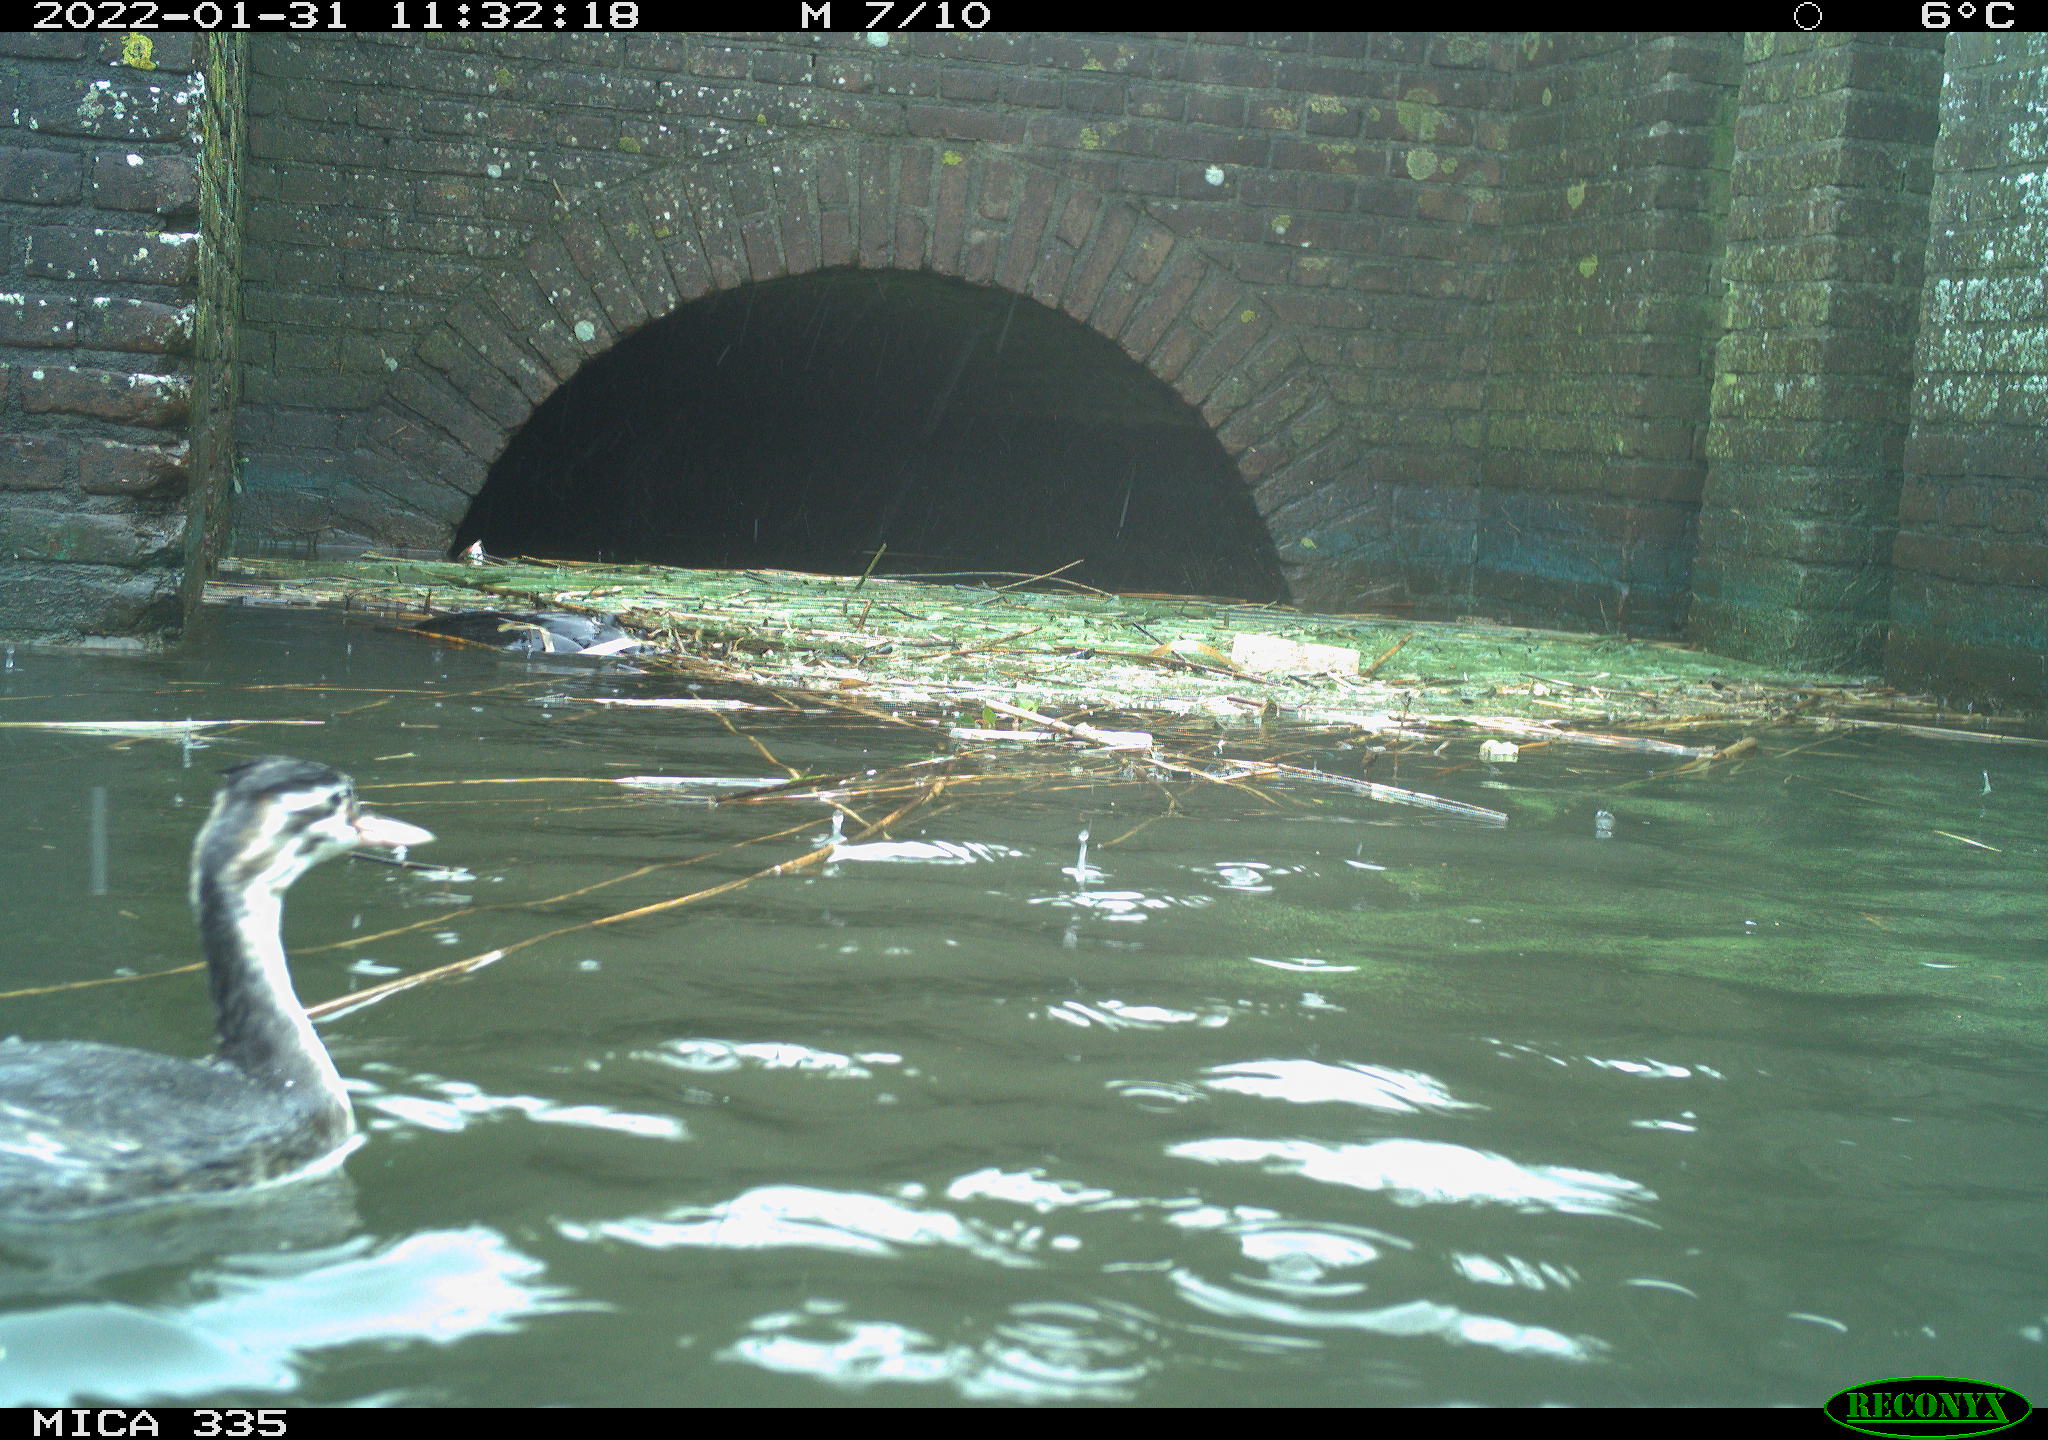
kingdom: Animalia
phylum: Chordata
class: Aves
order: Podicipediformes
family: Podicipedidae
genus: Podiceps
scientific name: Podiceps cristatus
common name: Great crested grebe
